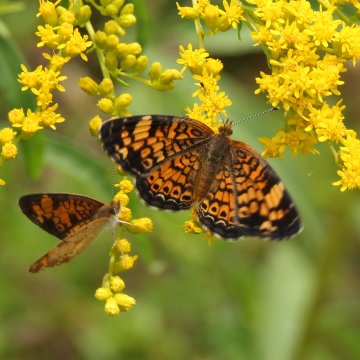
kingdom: Animalia
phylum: Arthropoda
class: Insecta
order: Lepidoptera
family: Nymphalidae
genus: Phyciodes
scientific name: Phyciodes tharos
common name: Pearl Crescent
